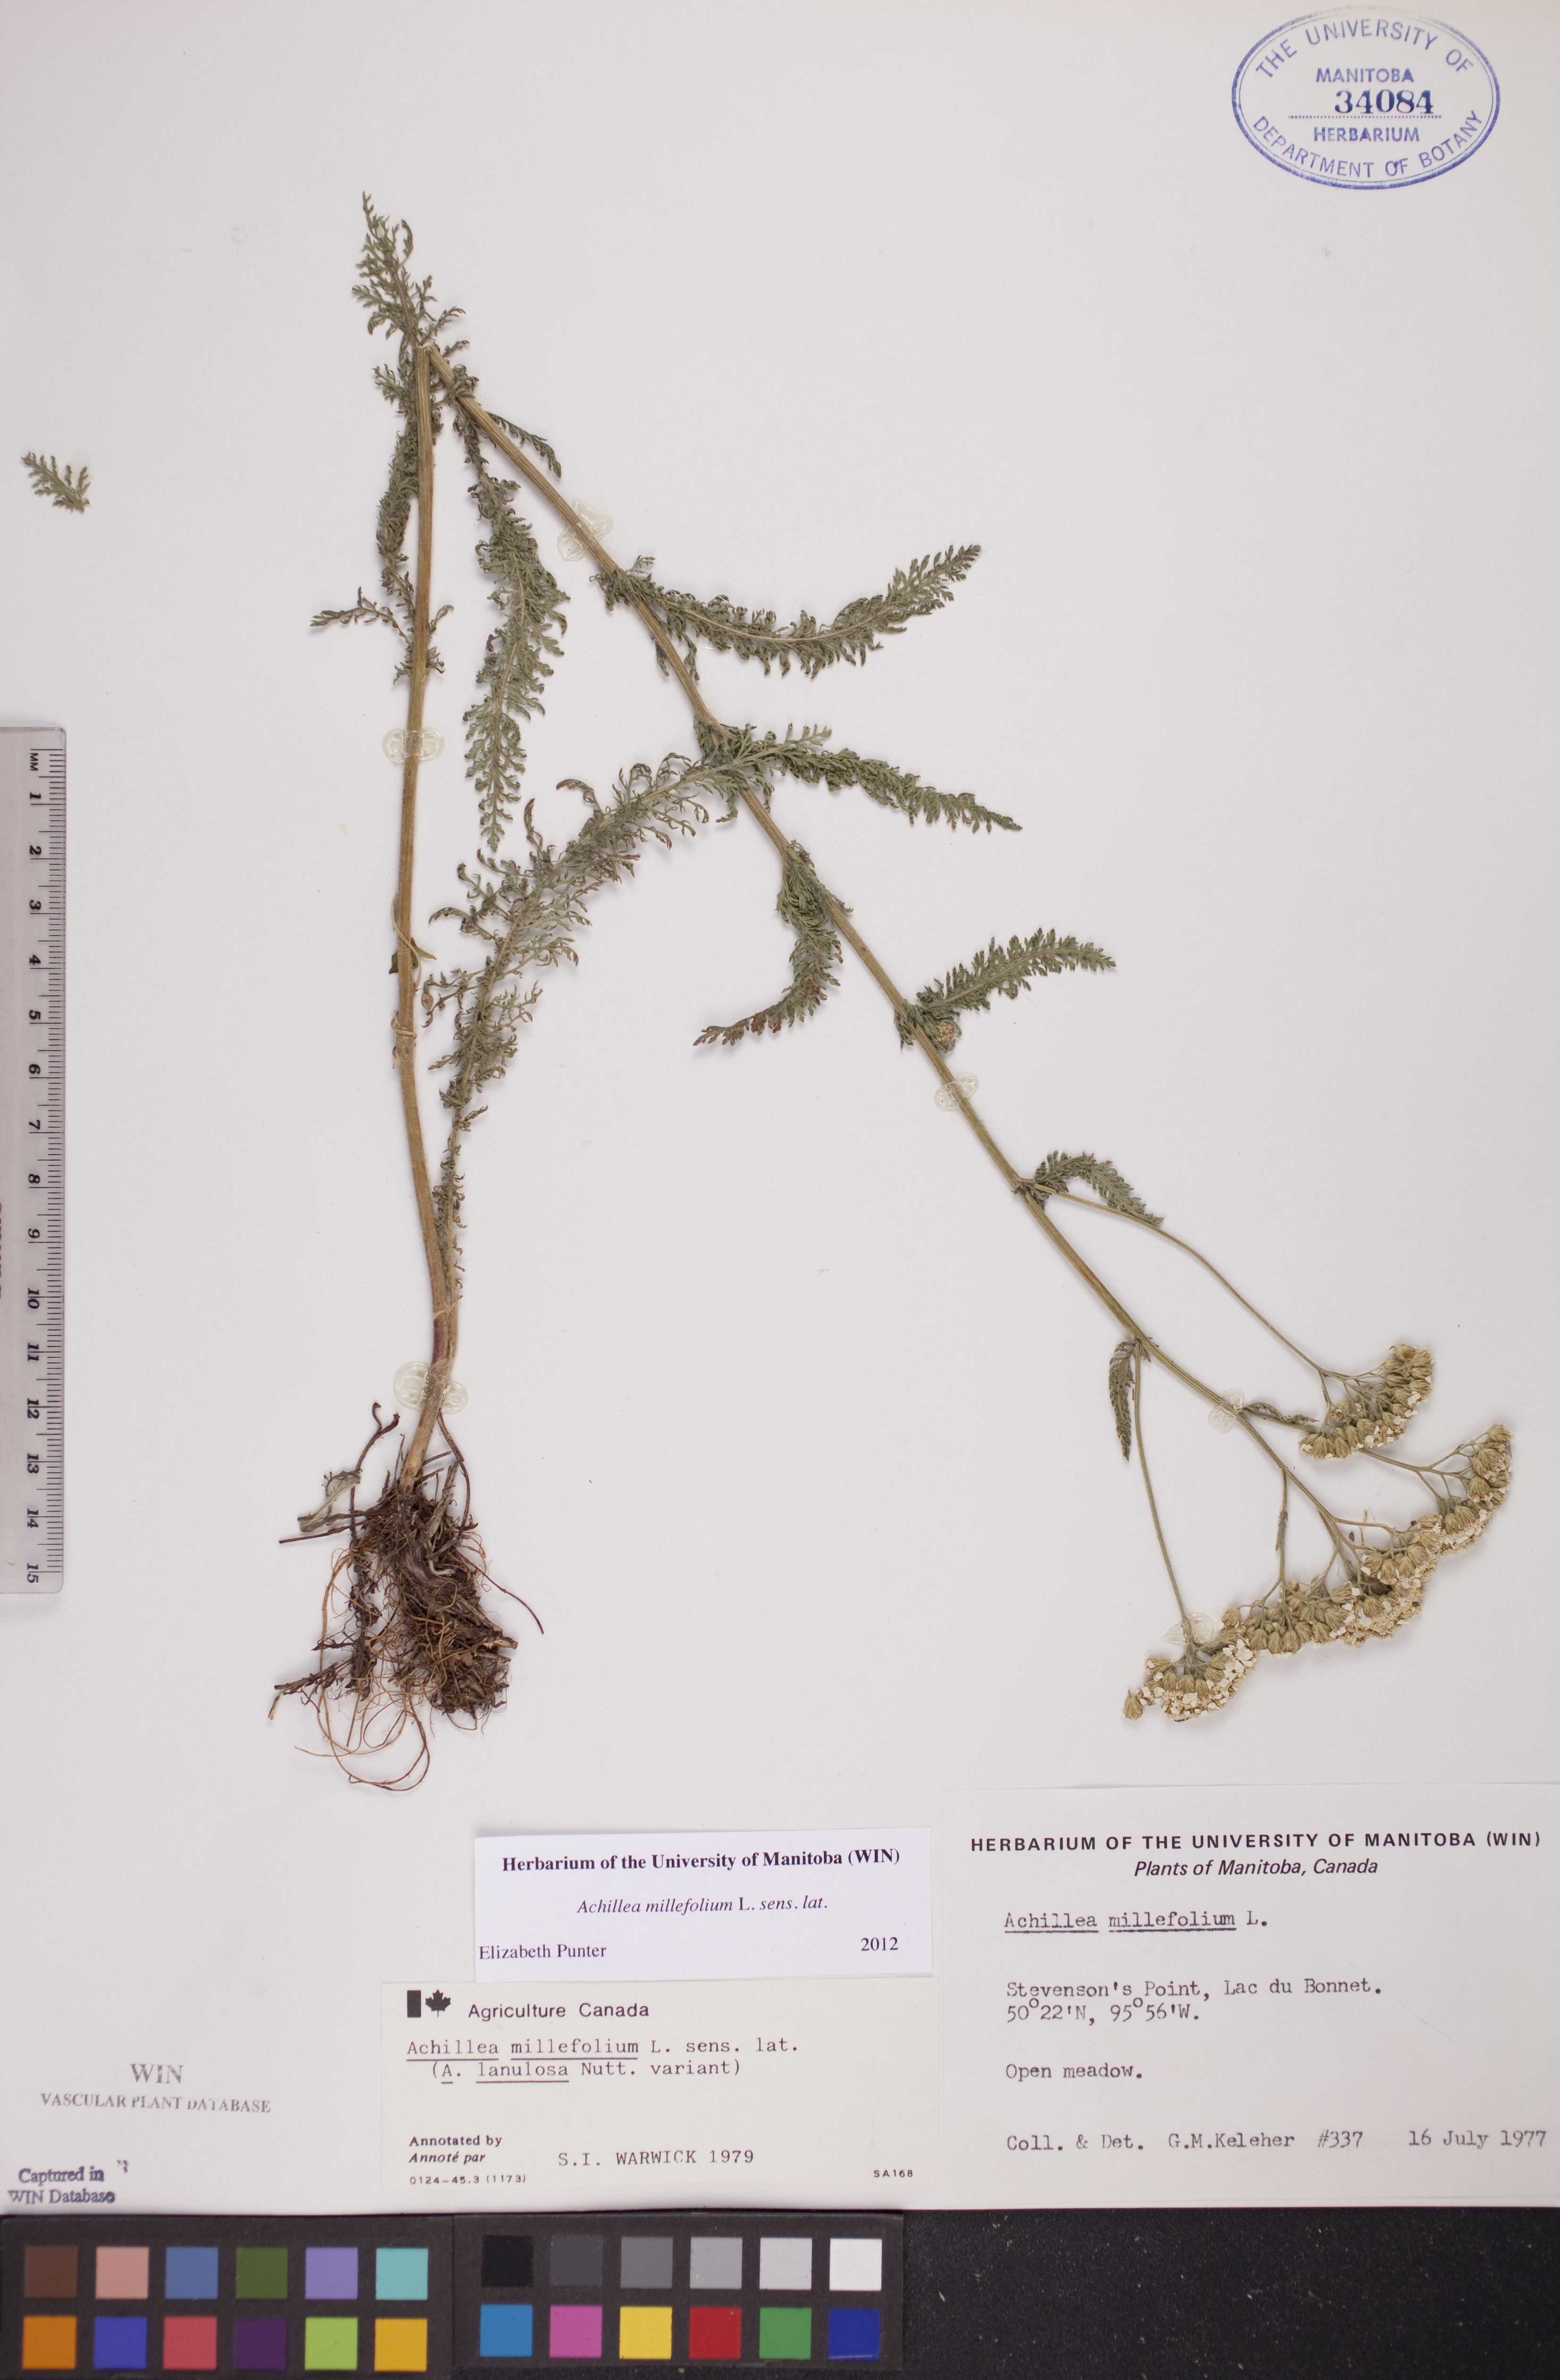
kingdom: Plantae
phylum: Tracheophyta
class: Magnoliopsida
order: Asterales
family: Asteraceae
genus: Achillea
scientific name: Achillea millefolium
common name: Yarrow
